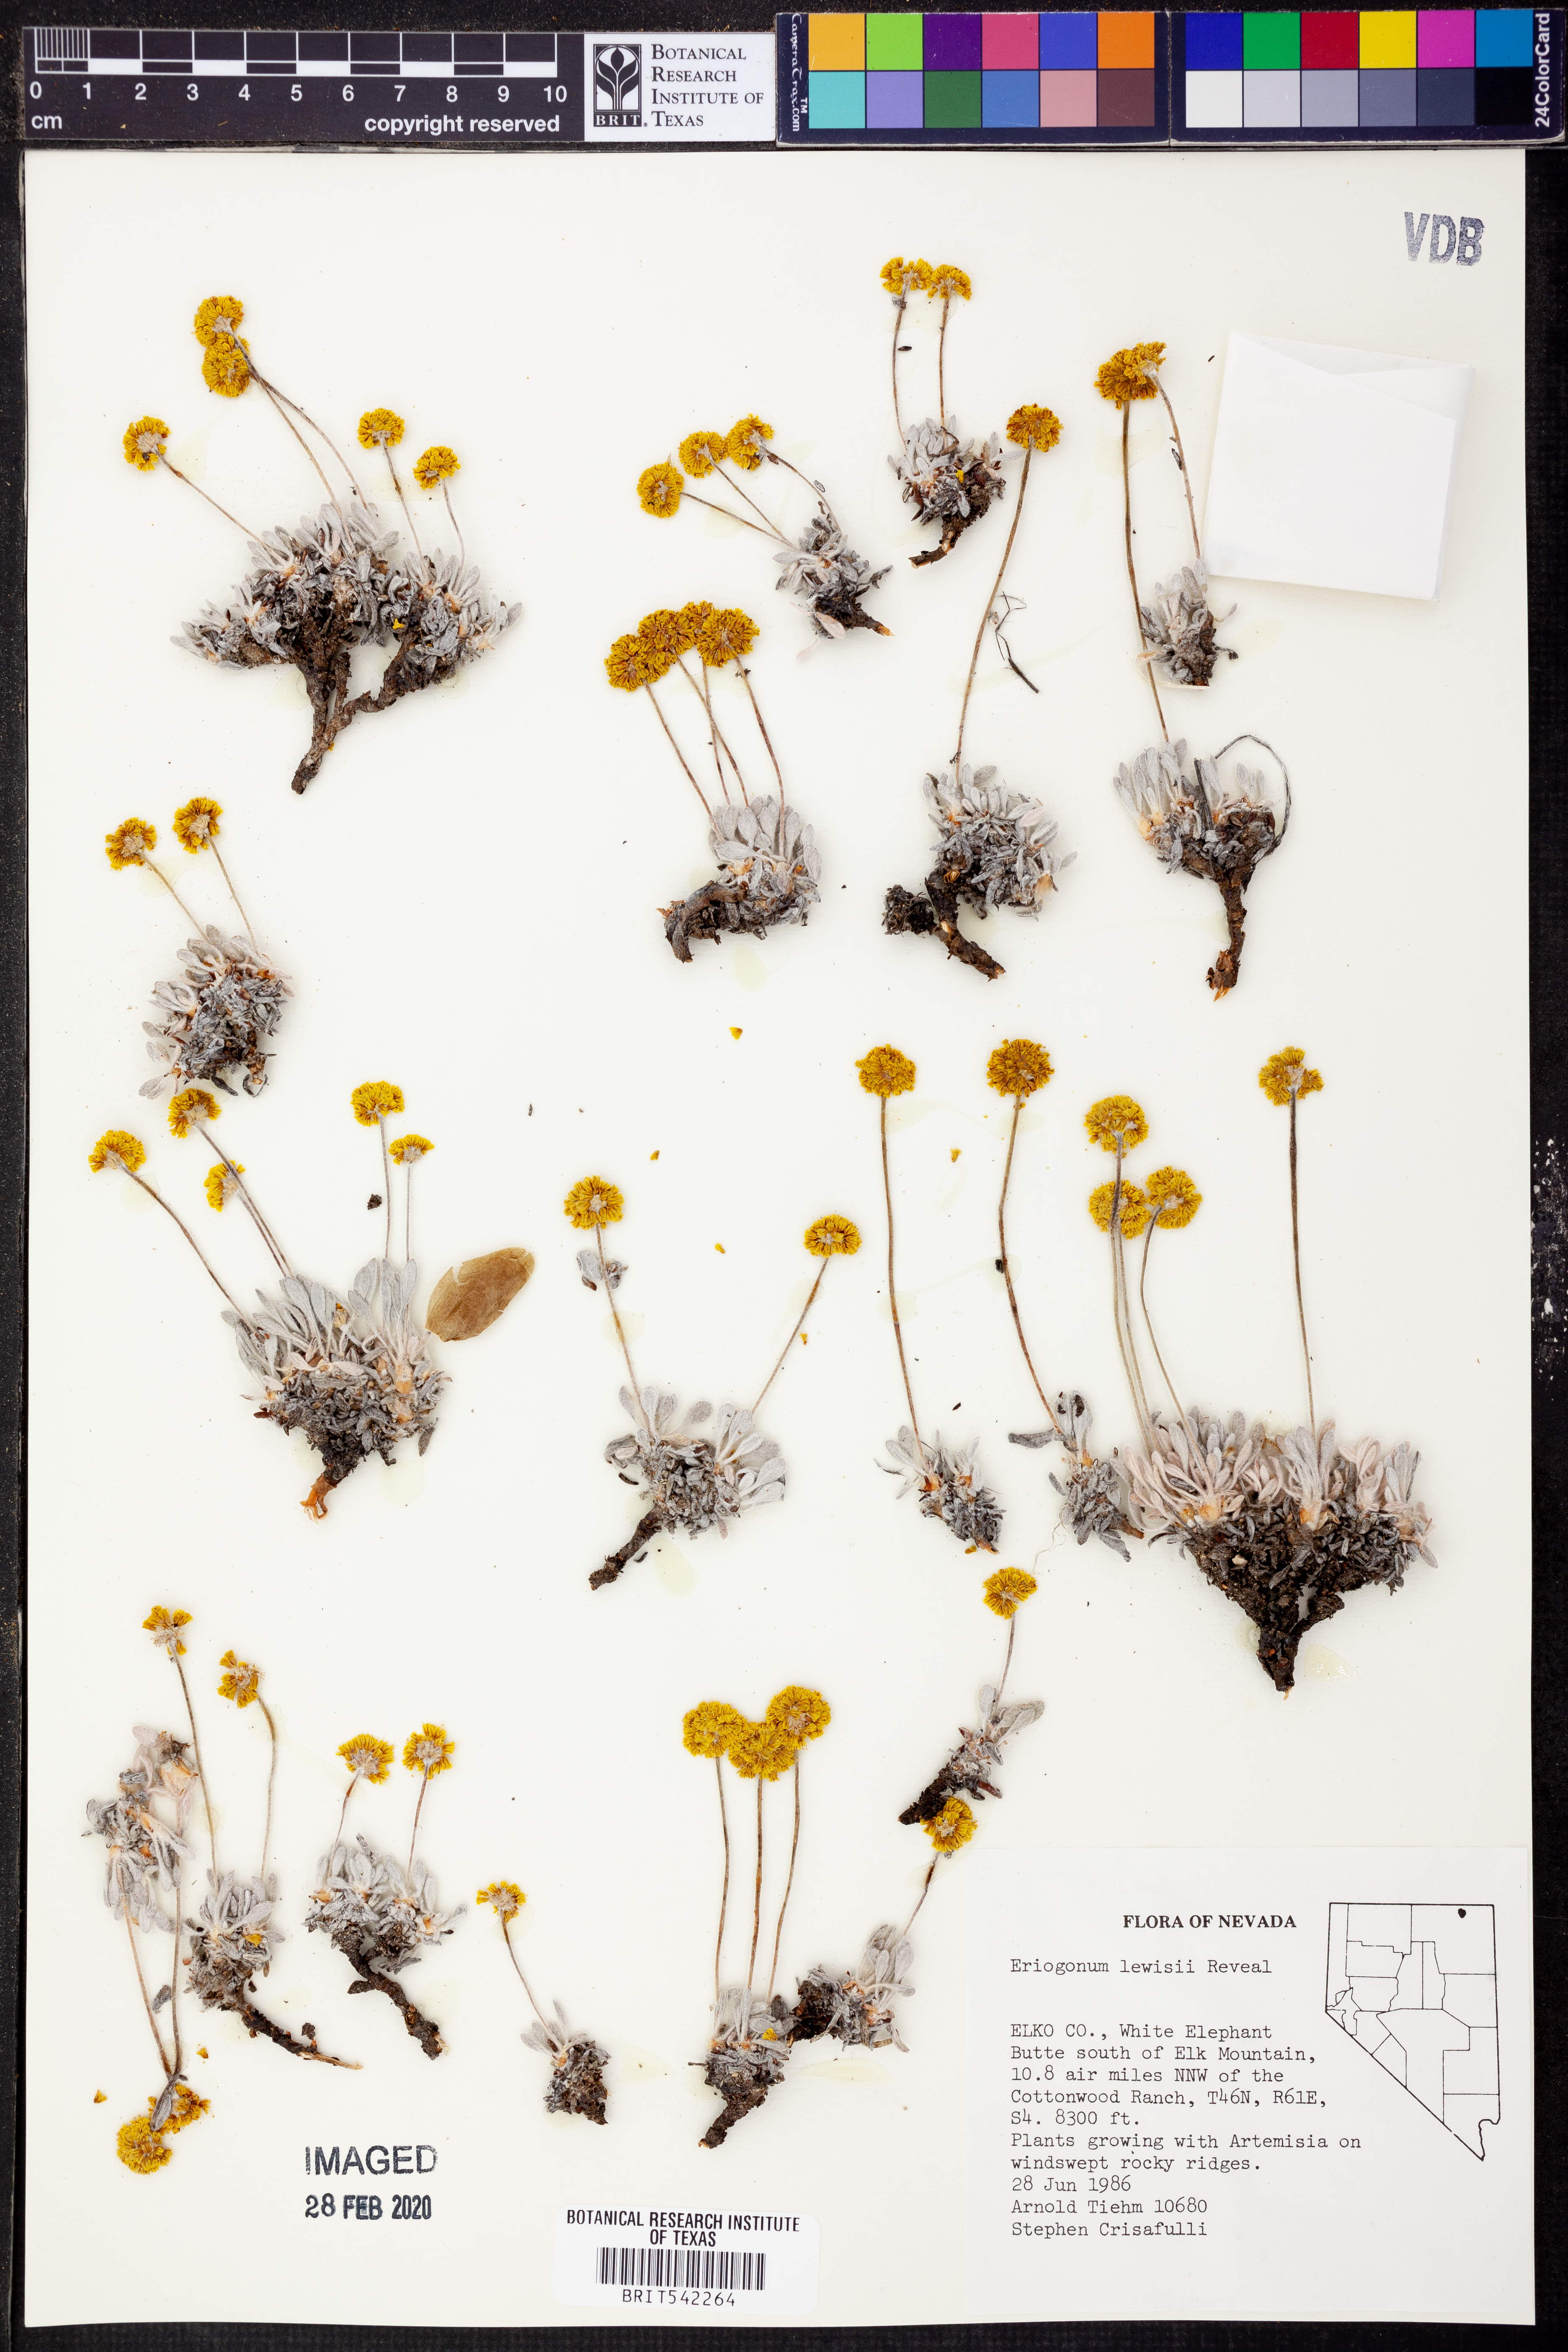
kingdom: Plantae
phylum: Tracheophyta
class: Magnoliopsida
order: Caryophyllales
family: Polygonaceae
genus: Eriogonum
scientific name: Eriogonum desertorum
